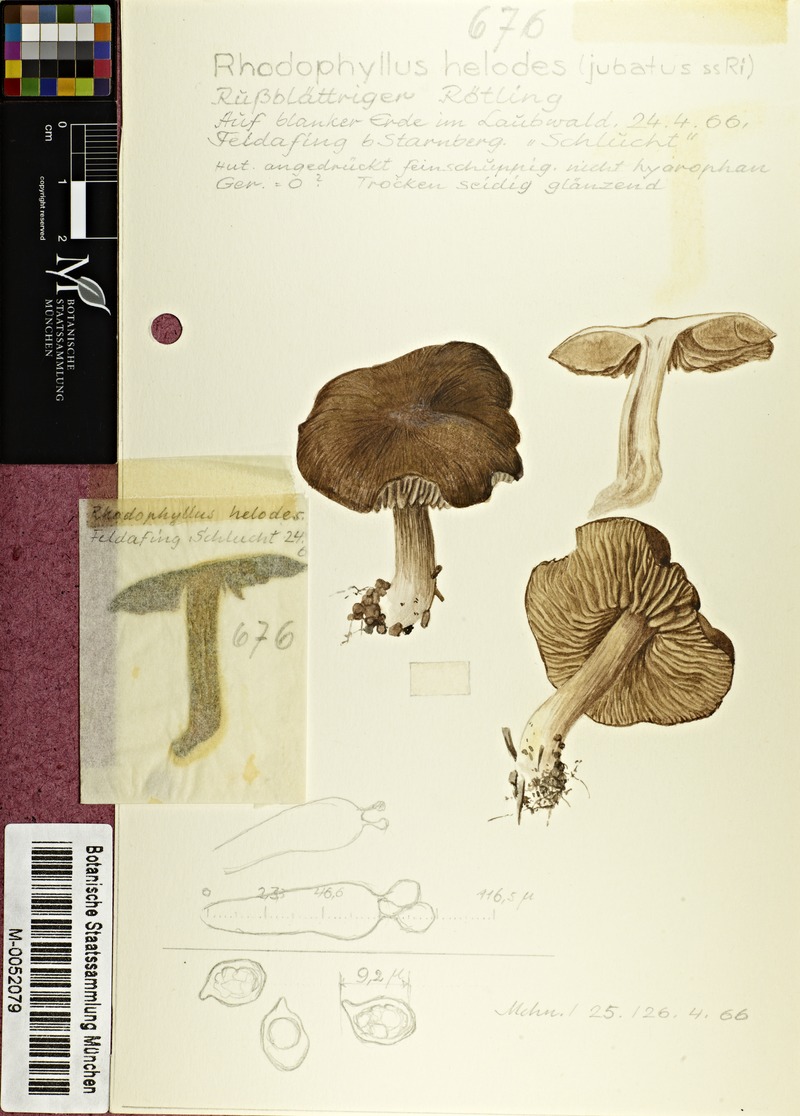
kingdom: Fungi
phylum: Basidiomycota
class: Agaricomycetes
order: Agaricales
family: Entolomataceae
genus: Entoloma
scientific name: Entoloma elodes
